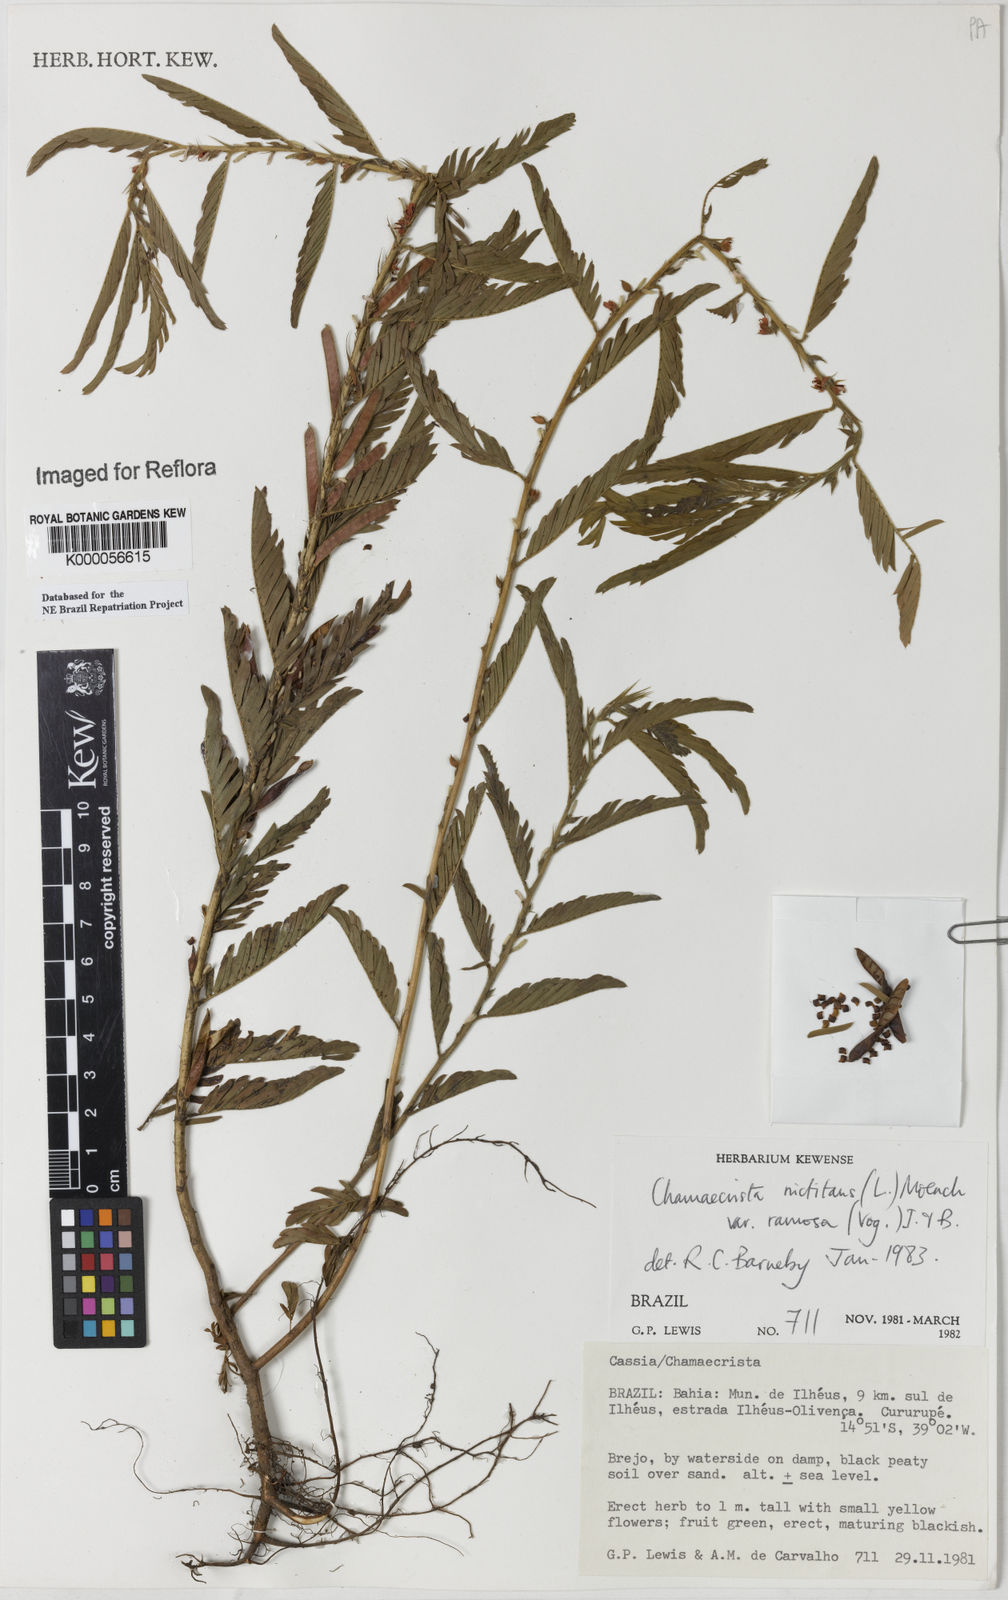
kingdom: Plantae
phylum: Tracheophyta
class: Magnoliopsida
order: Fabales
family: Fabaceae
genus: Chamaecrista
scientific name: Chamaecrista nictitans
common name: Sensitive cassia
